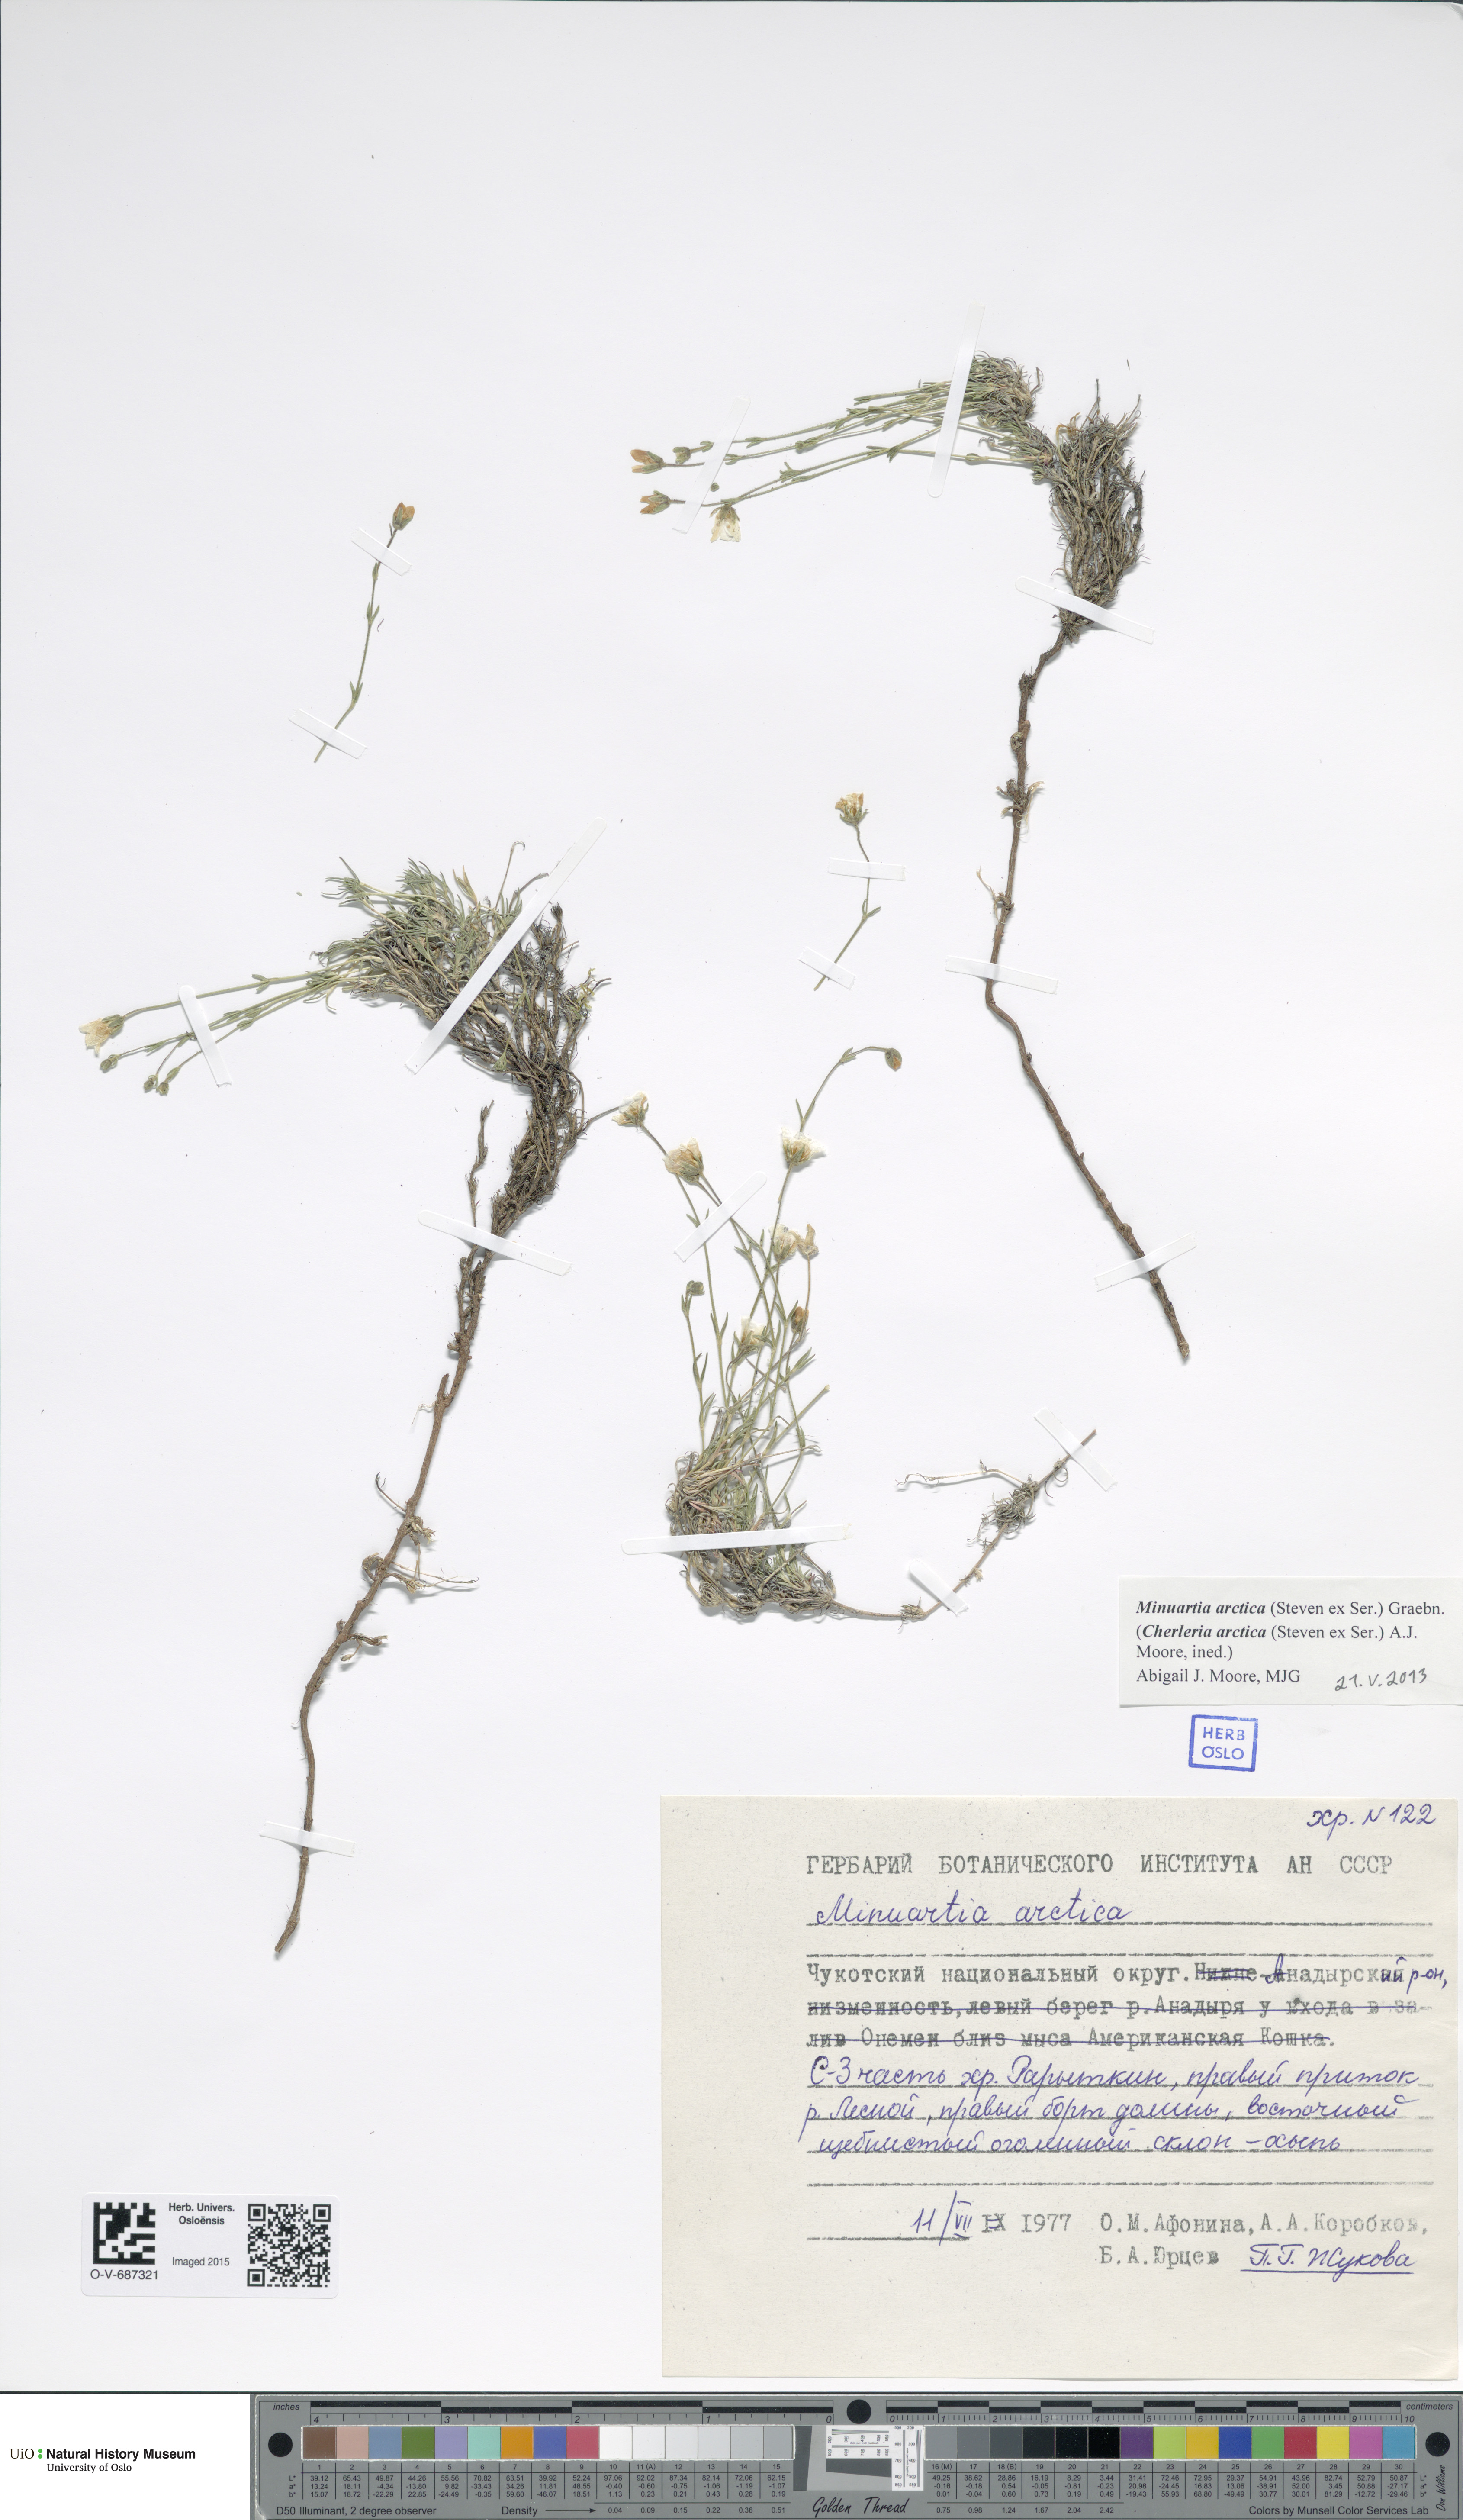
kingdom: Plantae
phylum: Tracheophyta
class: Magnoliopsida
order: Caryophyllales
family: Caryophyllaceae
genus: Cherleria
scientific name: Cherleria arctica
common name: Arctic sandwort
